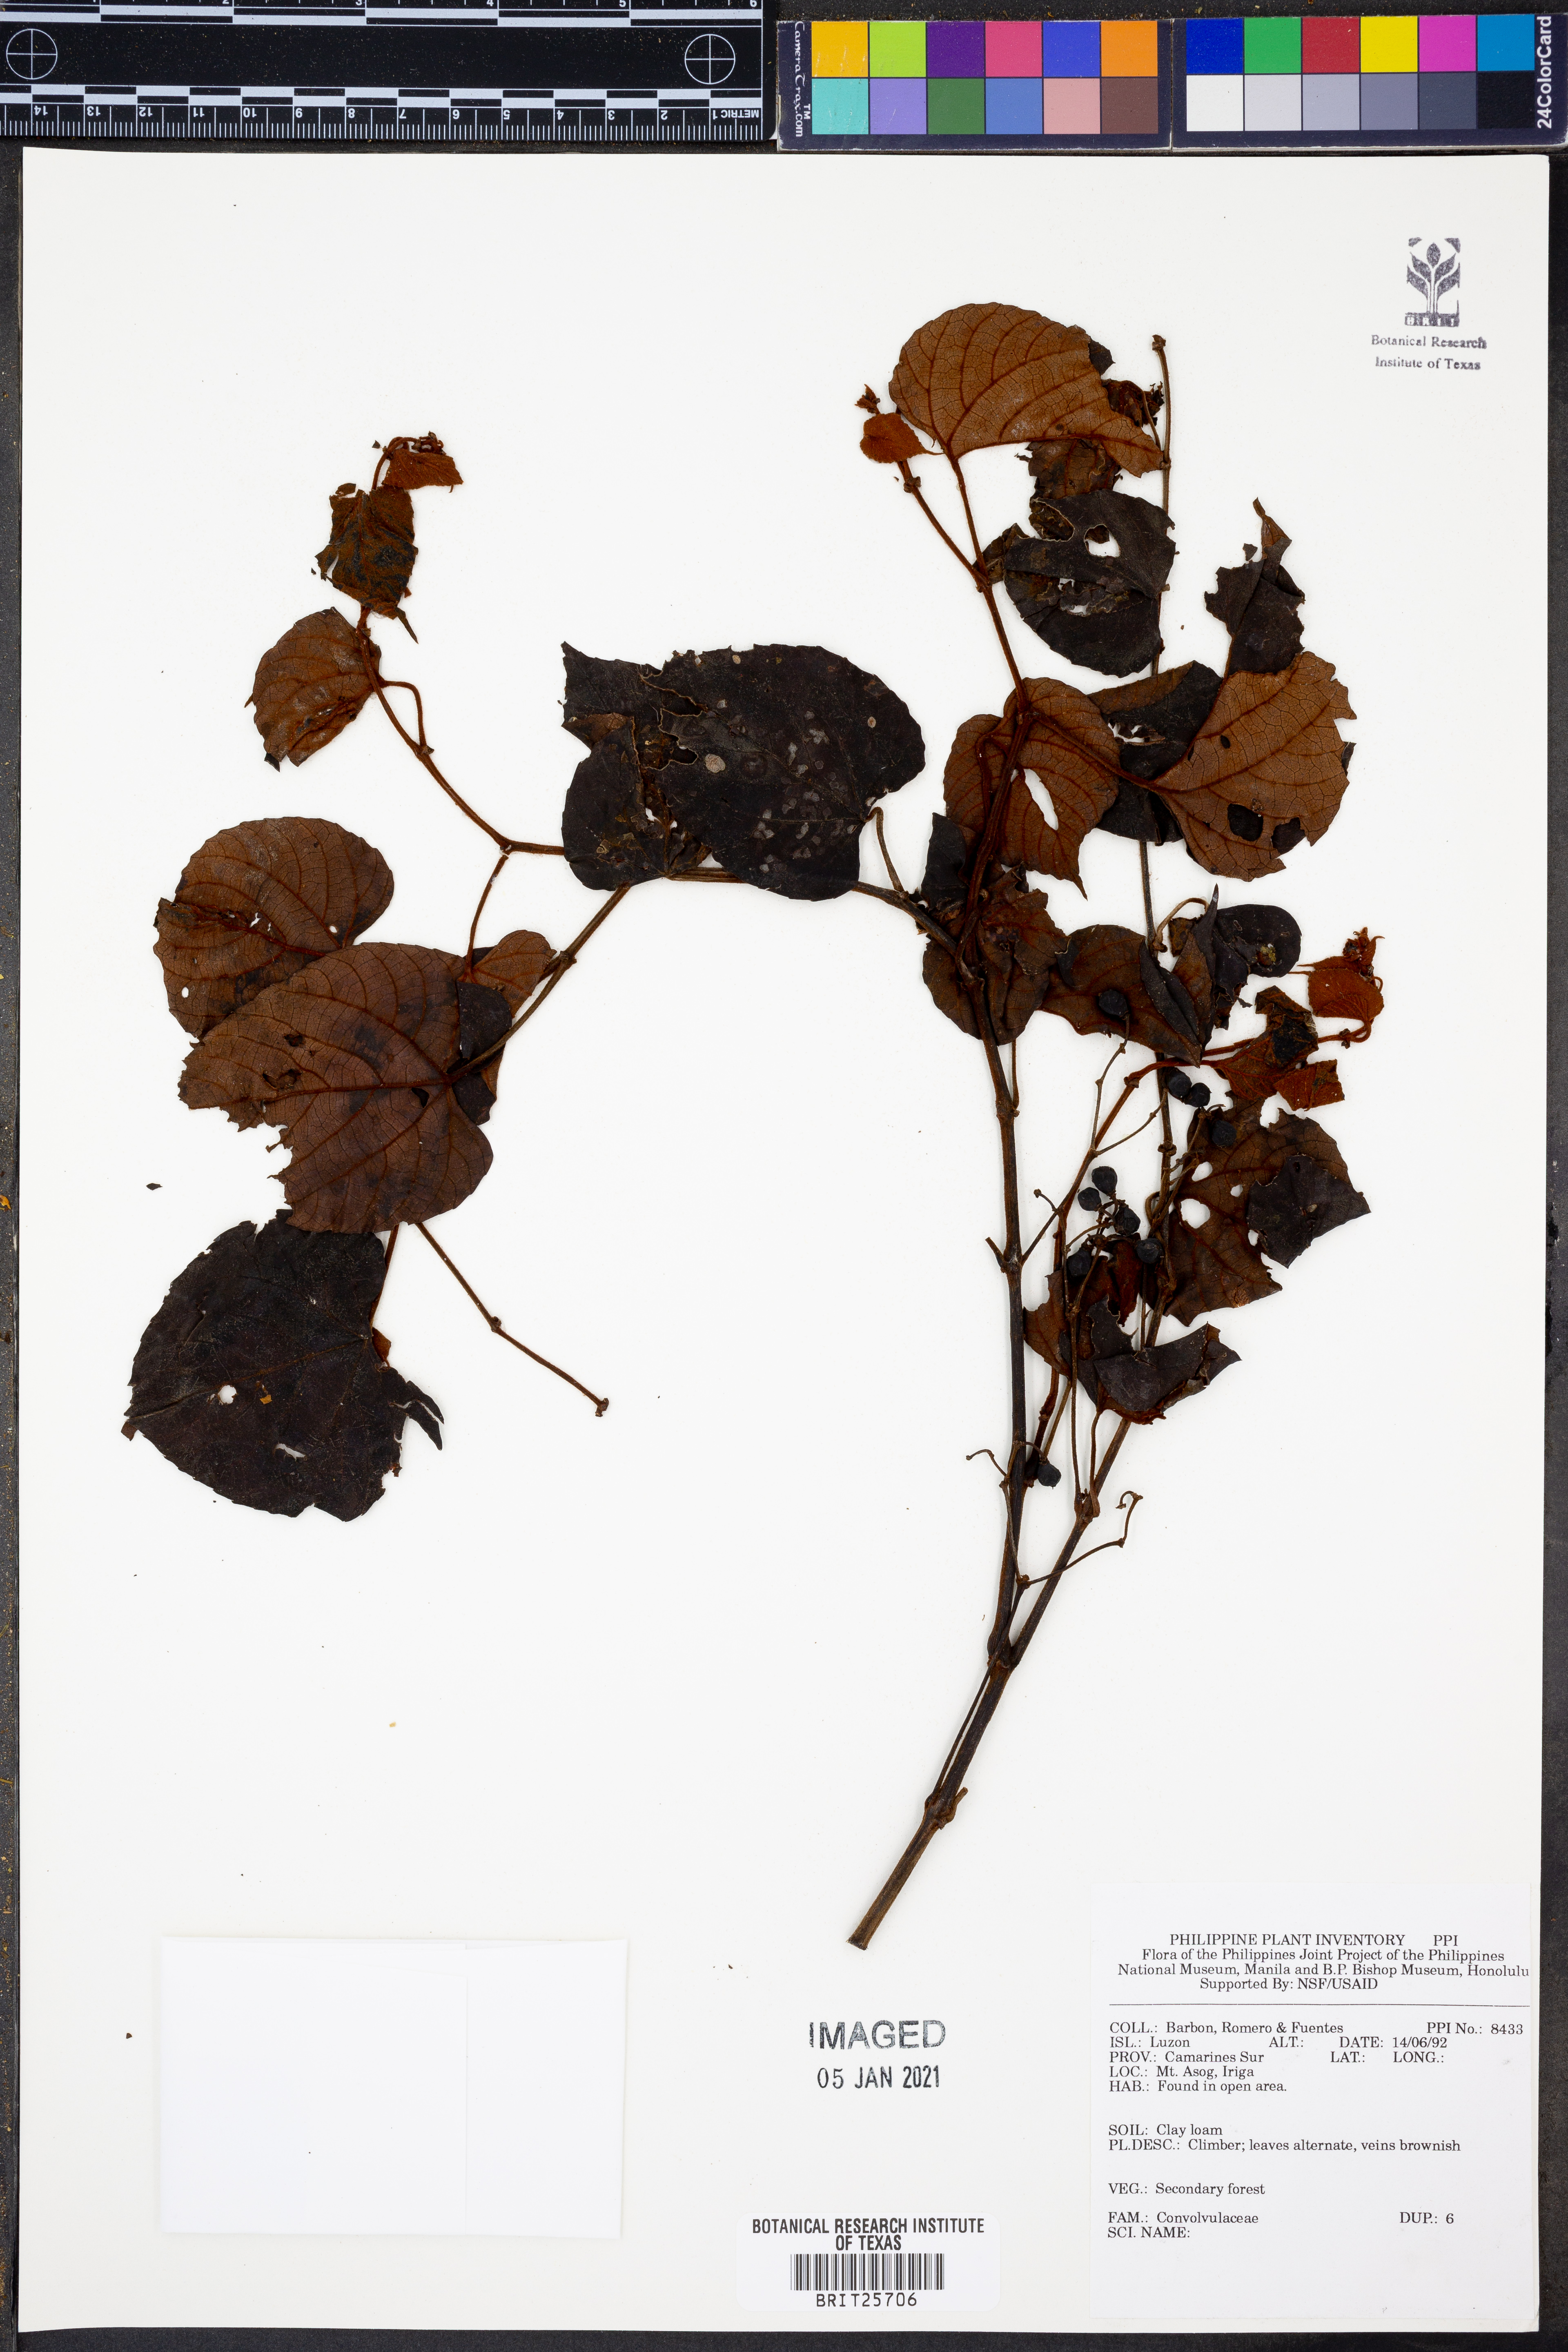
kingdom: Plantae
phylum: Tracheophyta
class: Magnoliopsida
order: Solanales
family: Convolvulaceae
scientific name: Convolvulaceae
